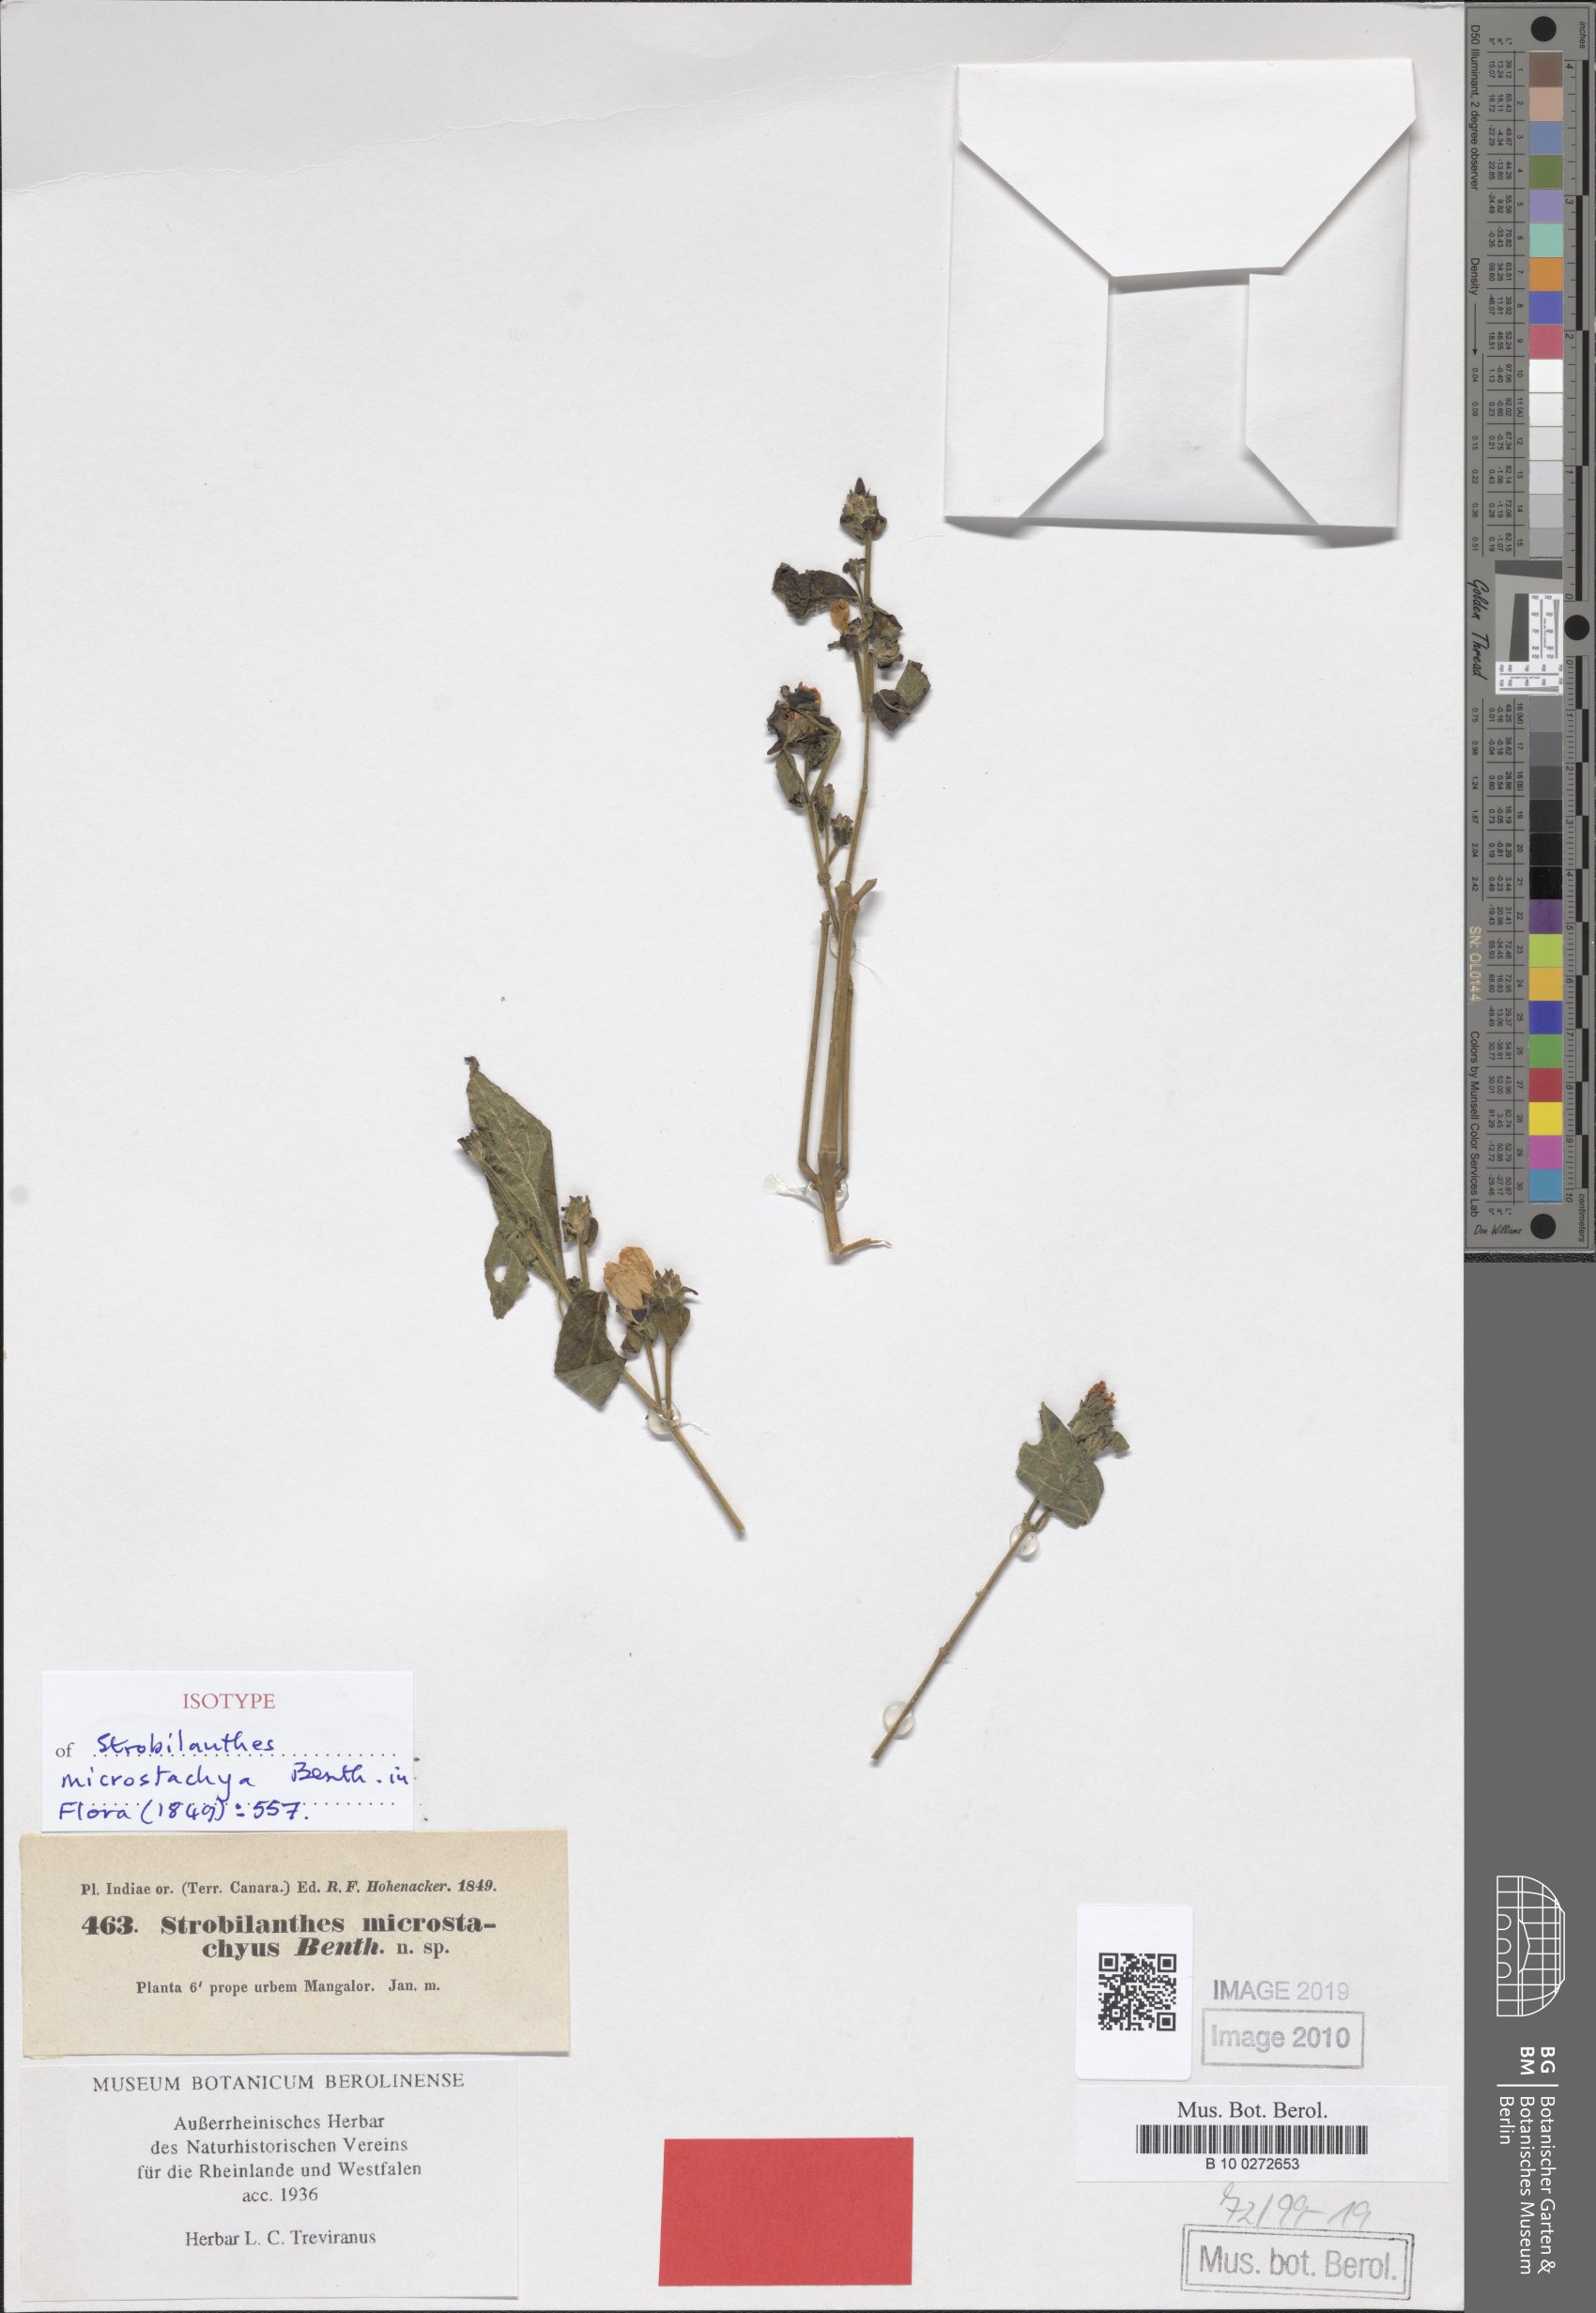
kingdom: Plantae
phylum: Tracheophyta
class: Magnoliopsida
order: Lamiales
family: Acanthaceae
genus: Strobilanthes
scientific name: Strobilanthes microstachya
